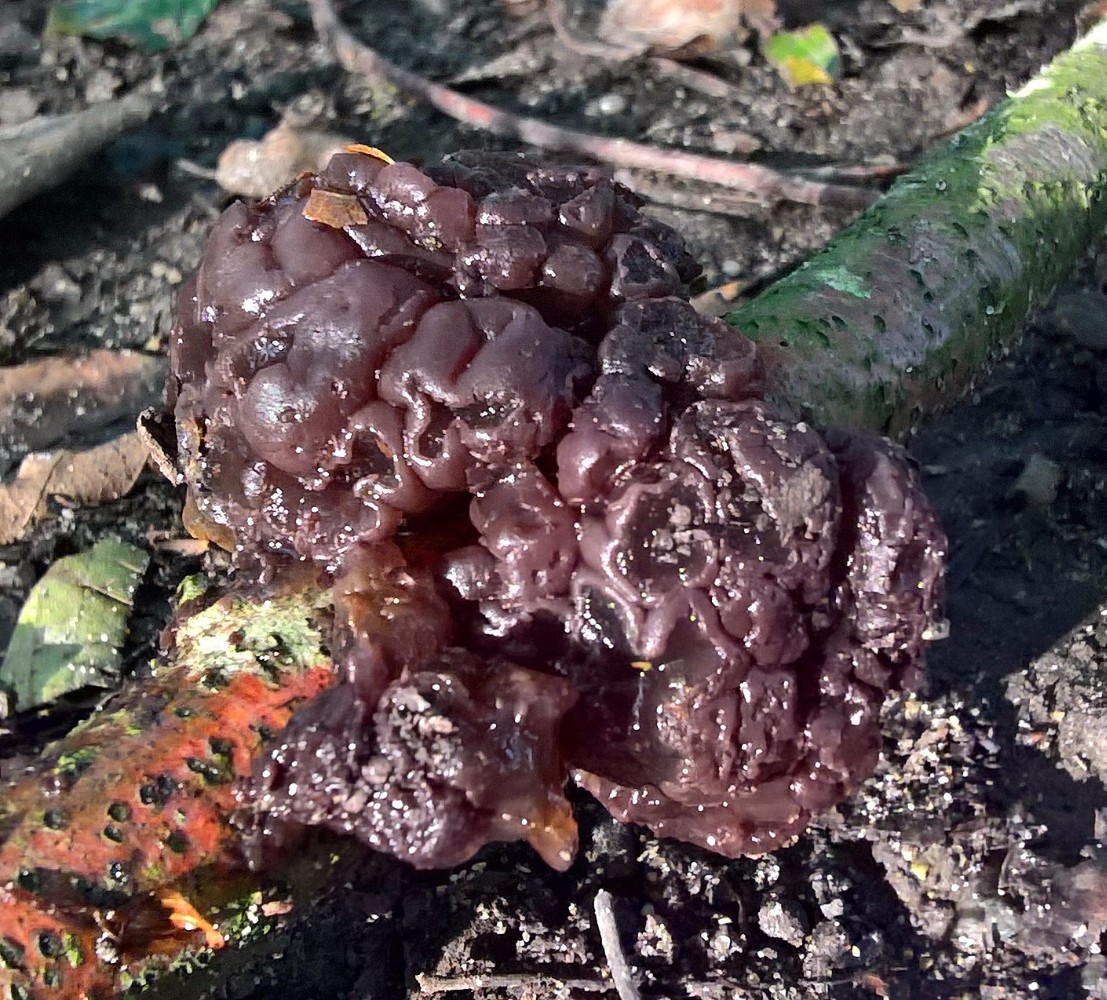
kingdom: Fungi
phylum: Ascomycota
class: Leotiomycetes
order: Helotiales
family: Gelatinodiscaceae
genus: Ascotremella
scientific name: Ascotremella faginea
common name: hjerne-bævreskive
